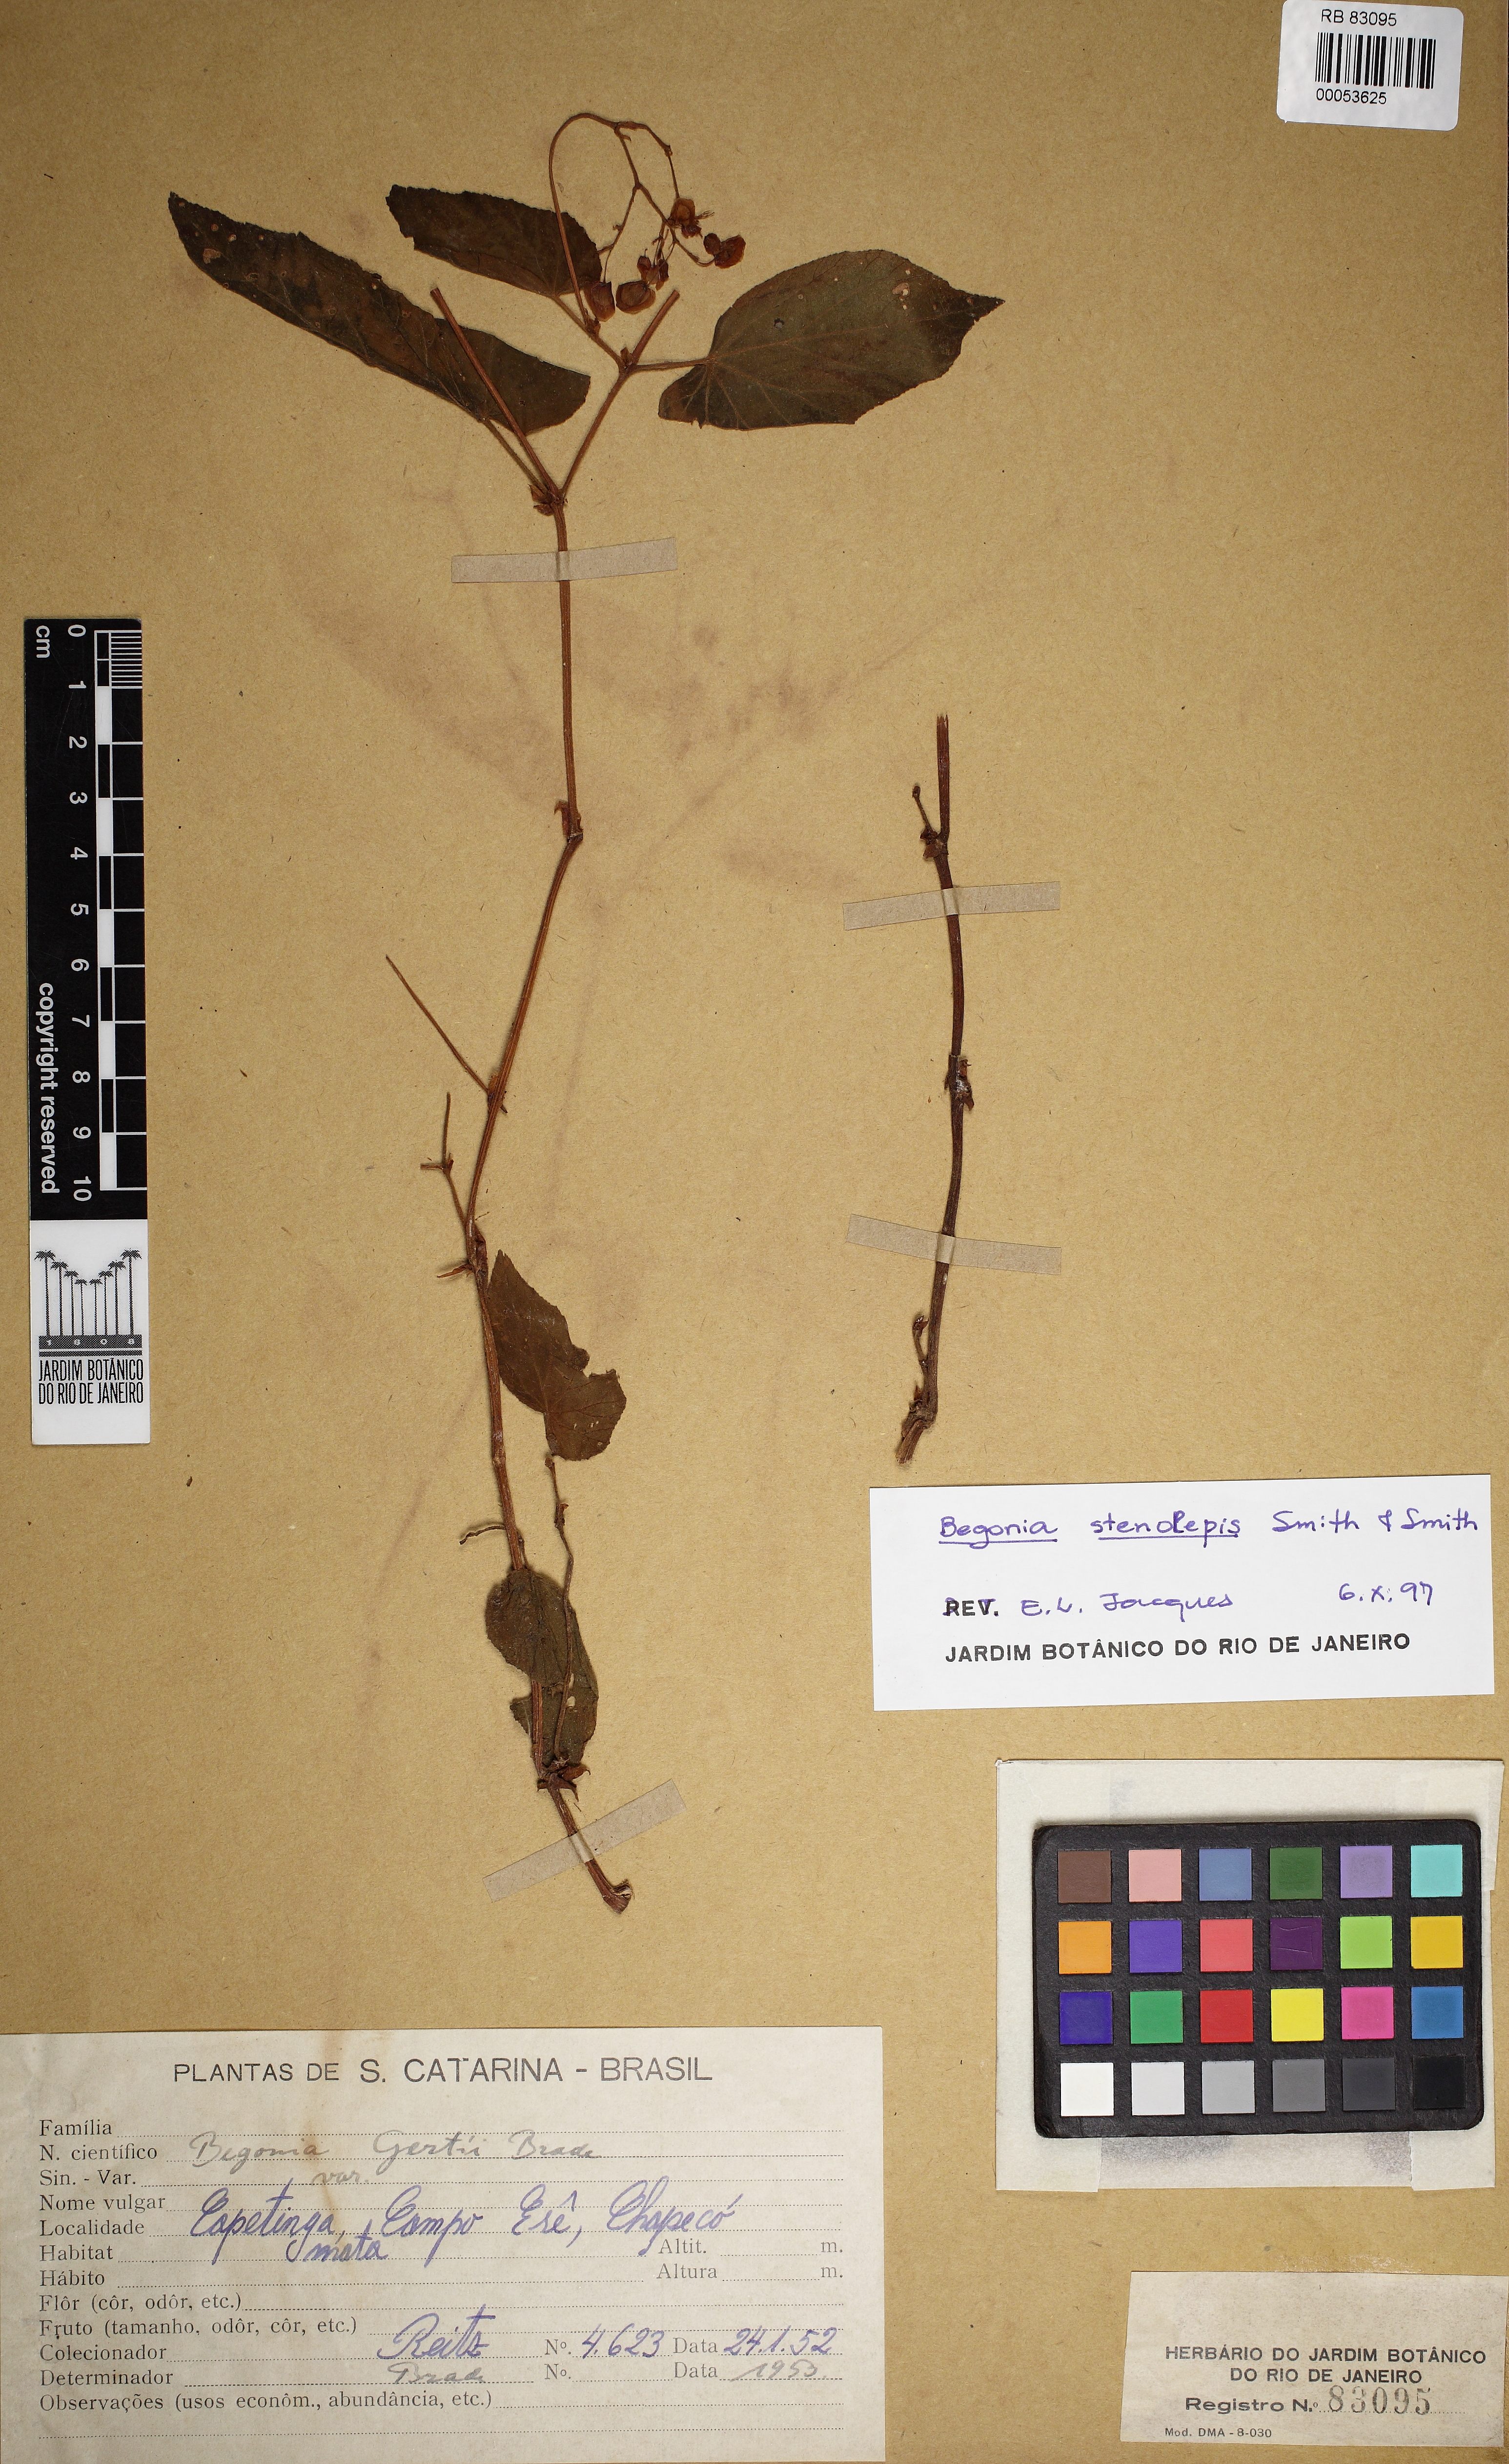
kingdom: Plantae
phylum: Tracheophyta
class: Magnoliopsida
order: Cucurbitales
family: Begoniaceae
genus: Begonia
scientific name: Begonia stenolepis
